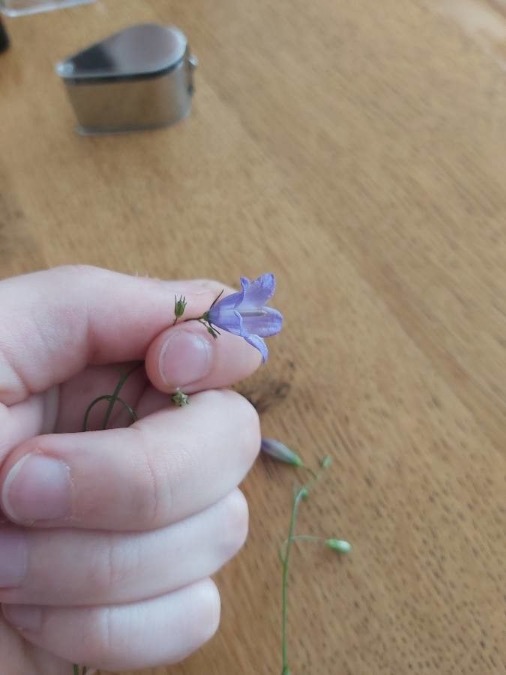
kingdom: Plantae
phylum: Tracheophyta
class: Magnoliopsida
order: Asterales
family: Campanulaceae
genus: Campanula
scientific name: Campanula rotundifolia
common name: Liden klokke
